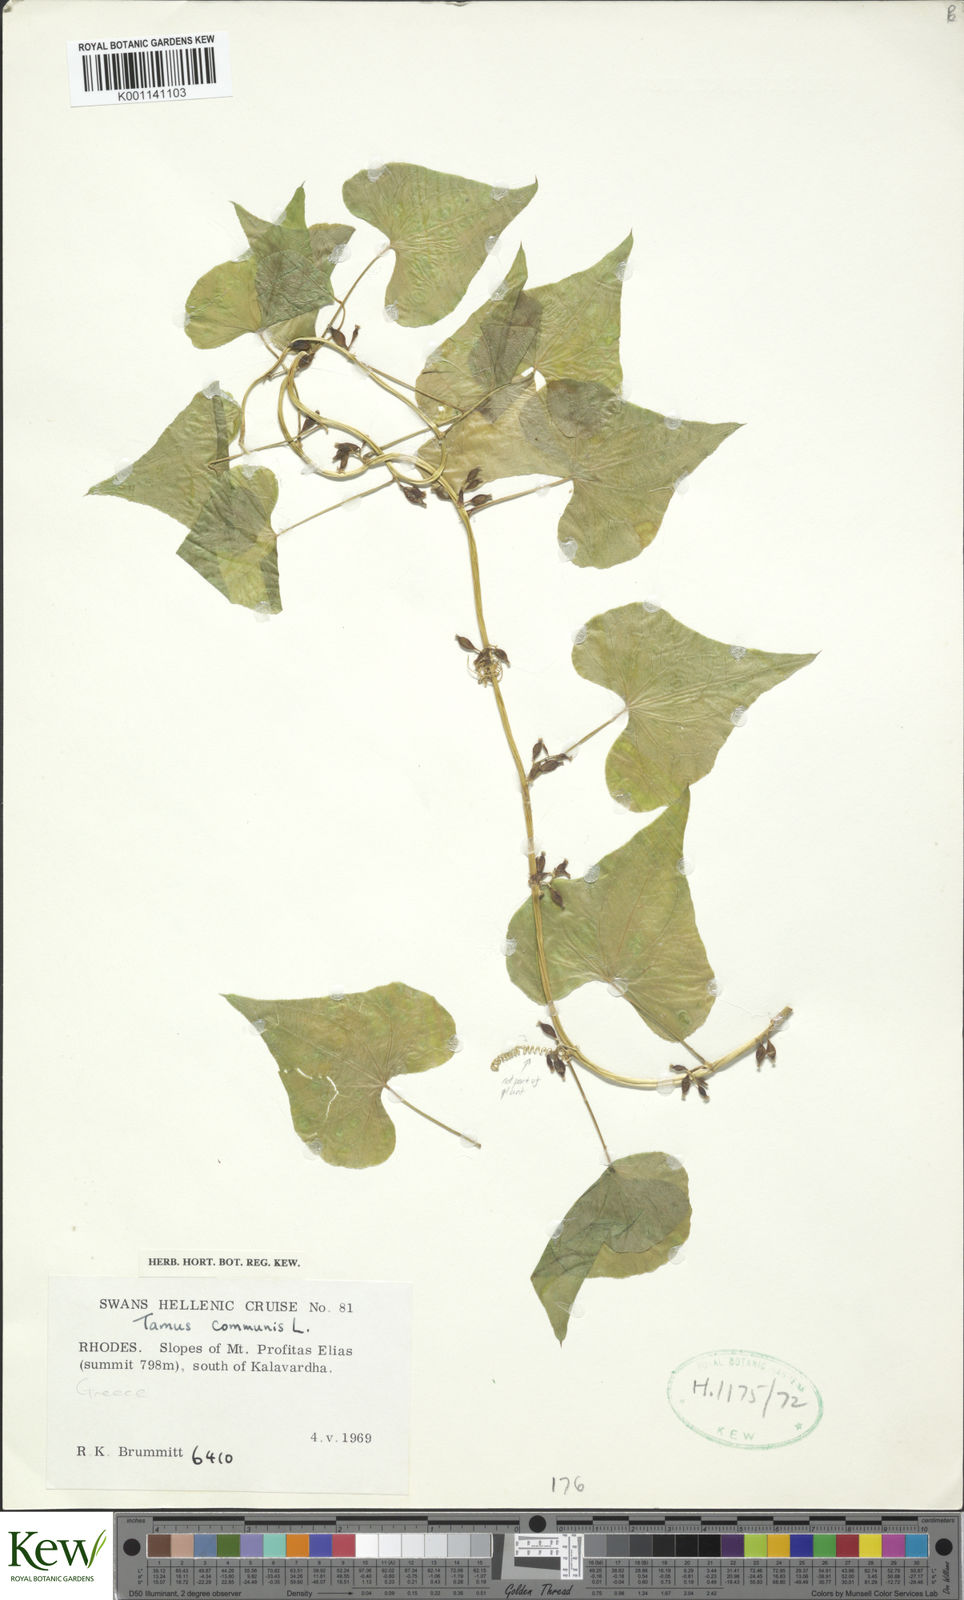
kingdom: Plantae
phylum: Tracheophyta
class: Liliopsida
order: Dioscoreales
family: Dioscoreaceae
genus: Dioscorea
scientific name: Dioscorea communis
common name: Black-bindweed
